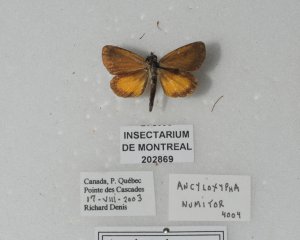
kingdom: Animalia
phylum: Arthropoda
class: Insecta
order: Lepidoptera
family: Hesperiidae
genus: Ancyloxypha
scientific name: Ancyloxypha numitor
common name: Least Skipper
